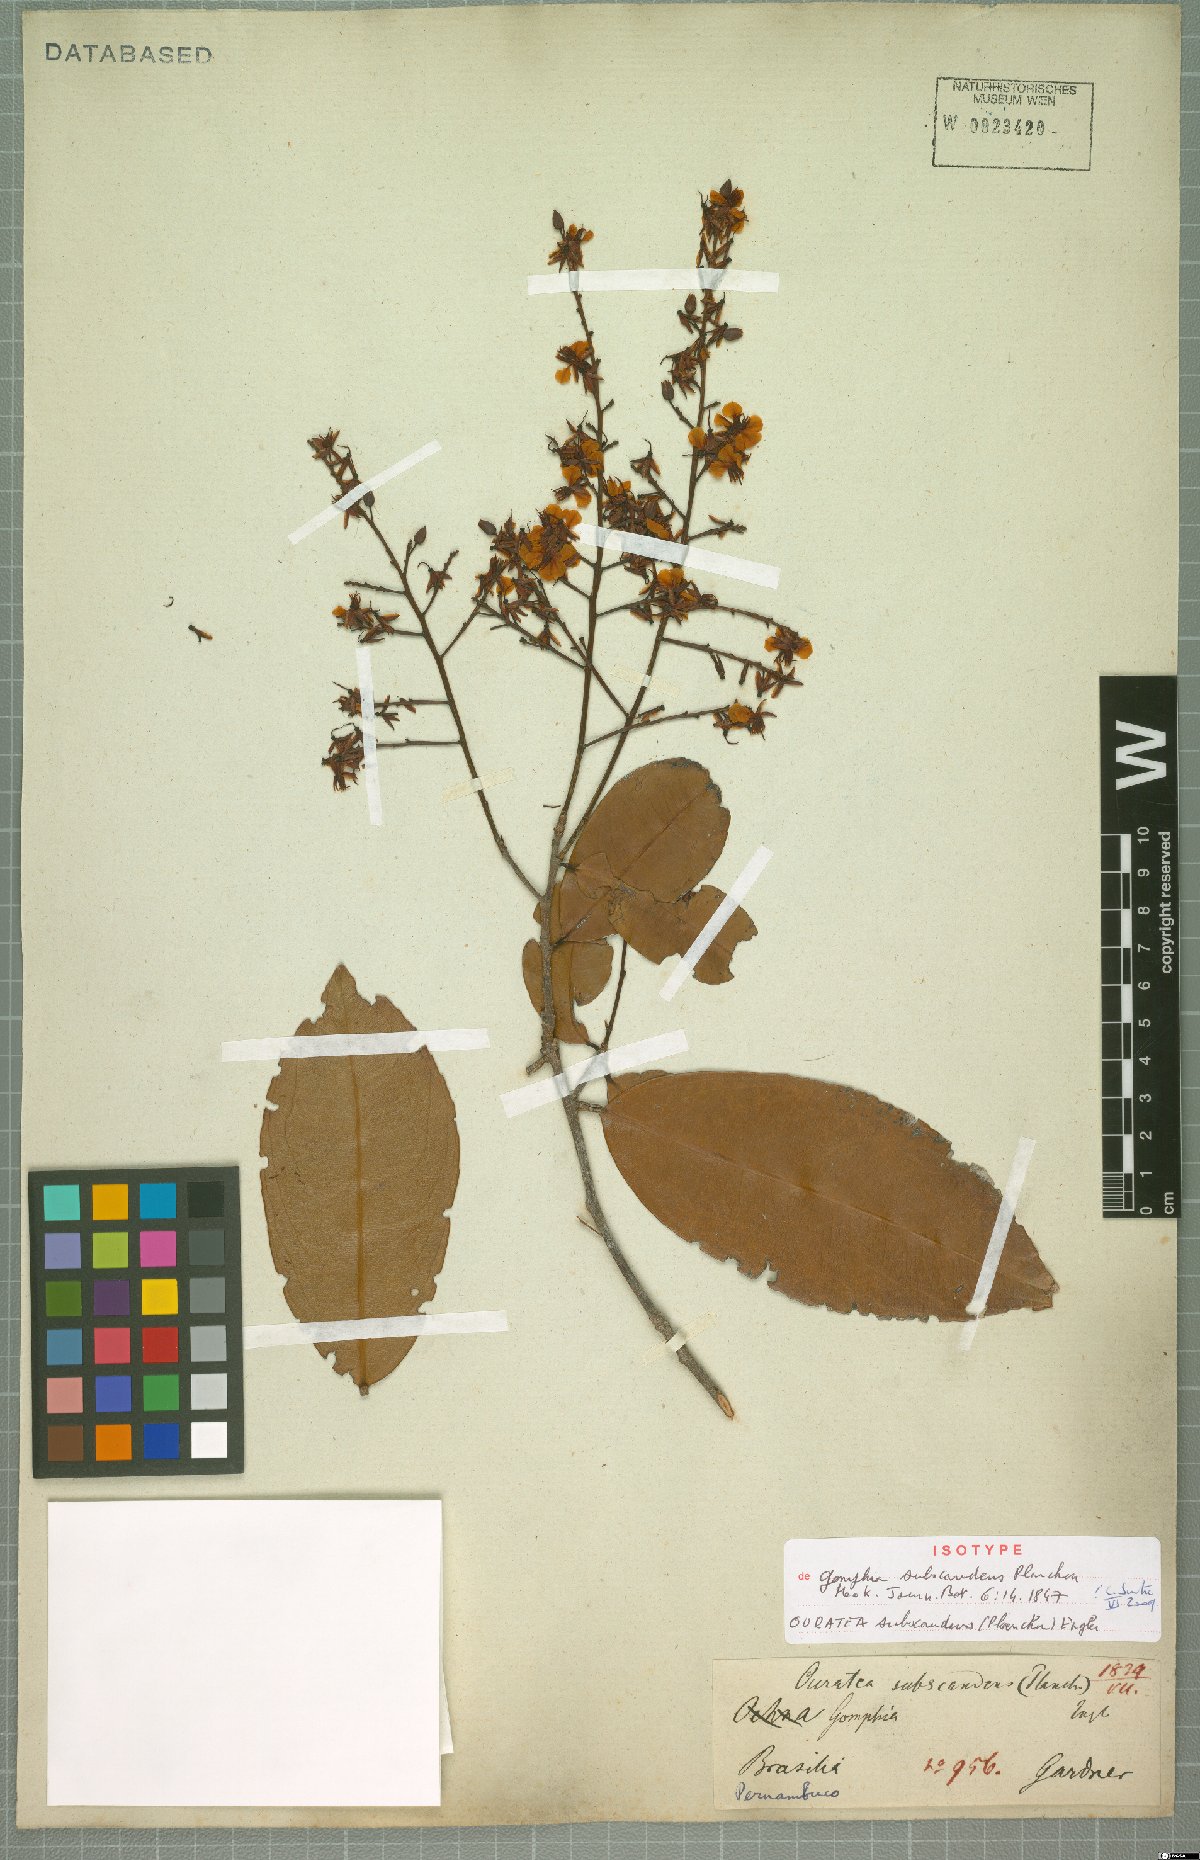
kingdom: Plantae
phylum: Tracheophyta
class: Magnoliopsida
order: Malpighiales
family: Ochnaceae
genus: Ouratea
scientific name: Ouratea subscandens
